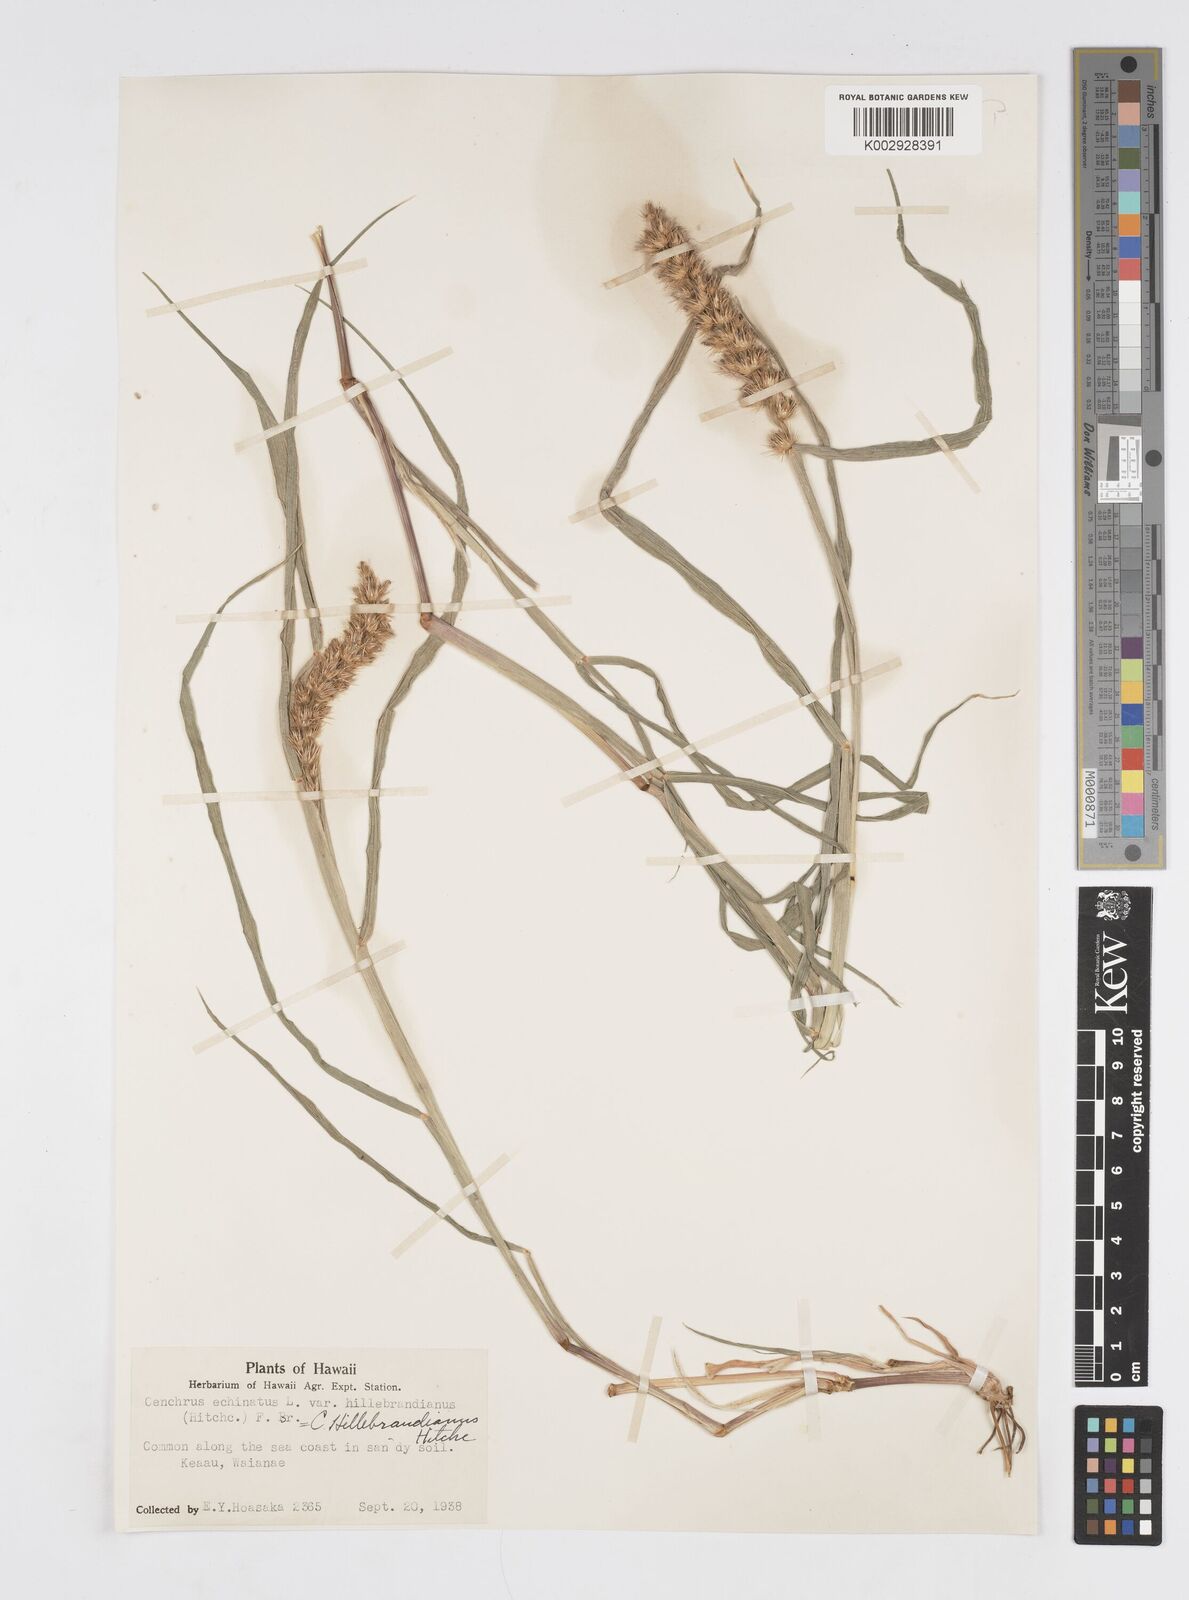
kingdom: Plantae
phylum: Tracheophyta
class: Liliopsida
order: Poales
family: Poaceae
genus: Cenchrus
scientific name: Cenchrus echinatus
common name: Southern sandbur
